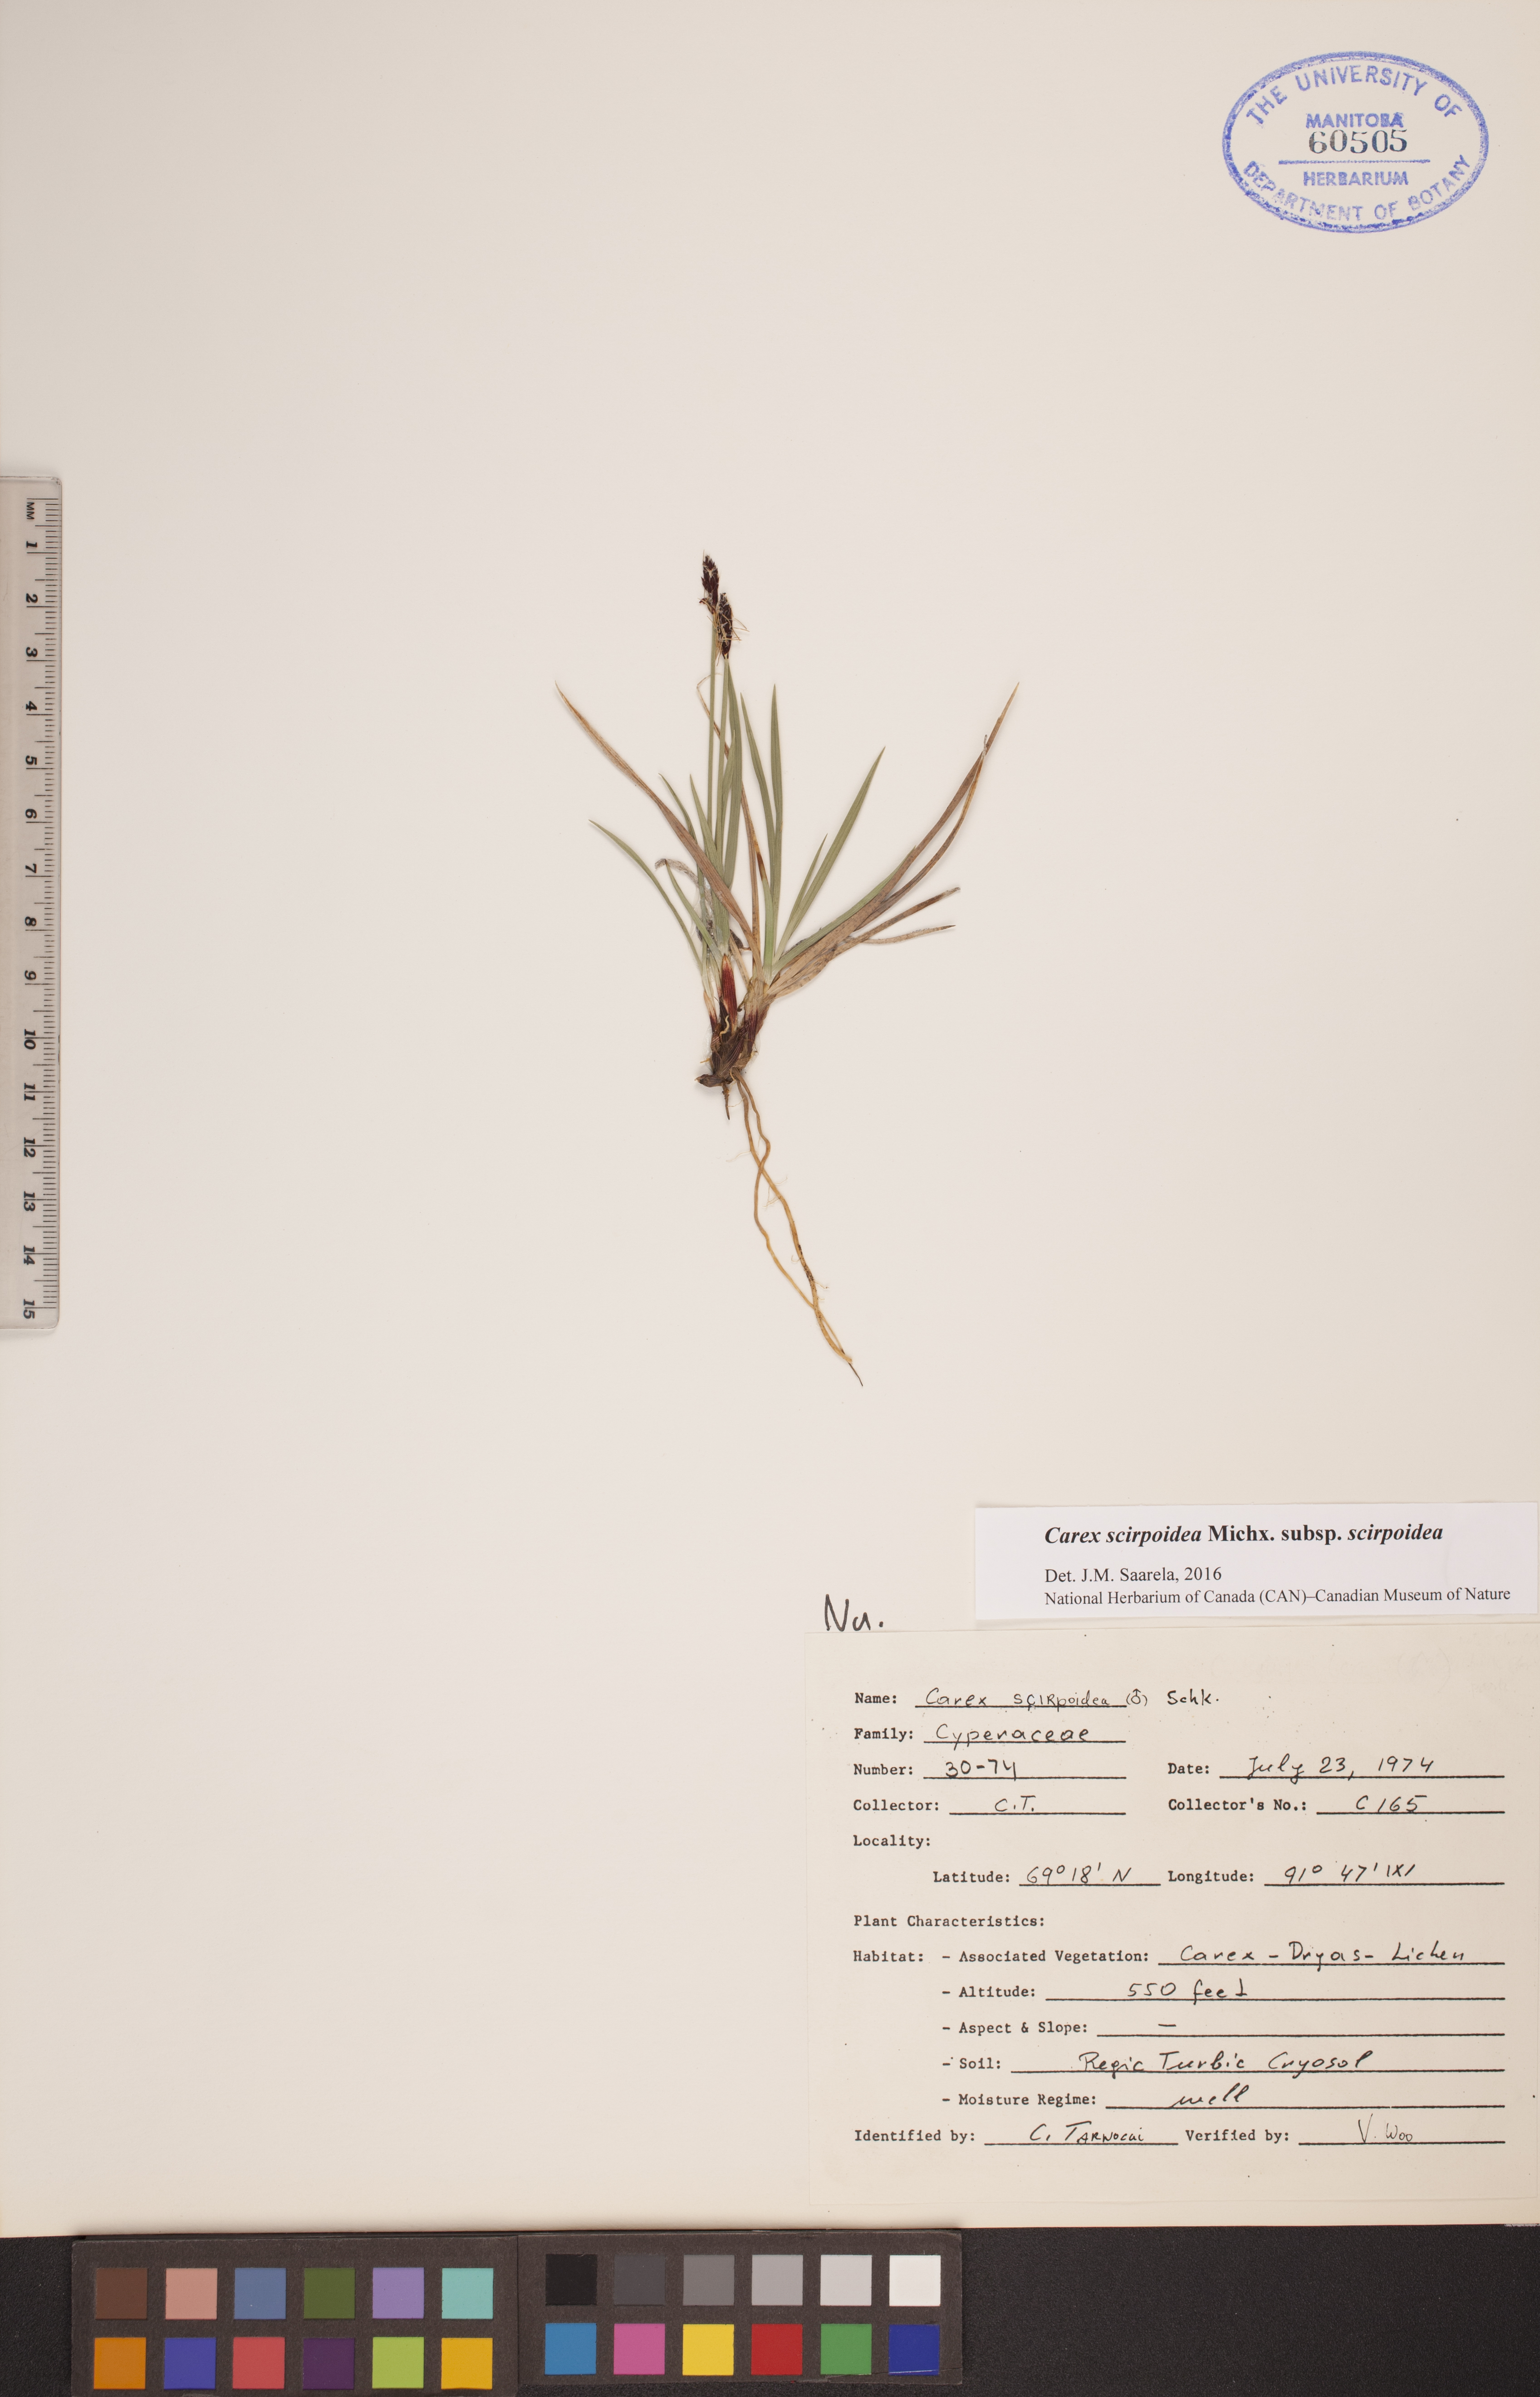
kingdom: Plantae
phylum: Tracheophyta
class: Liliopsida
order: Poales
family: Cyperaceae
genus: Carex
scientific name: Carex scirpoidea
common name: Canada single-spike sedge
